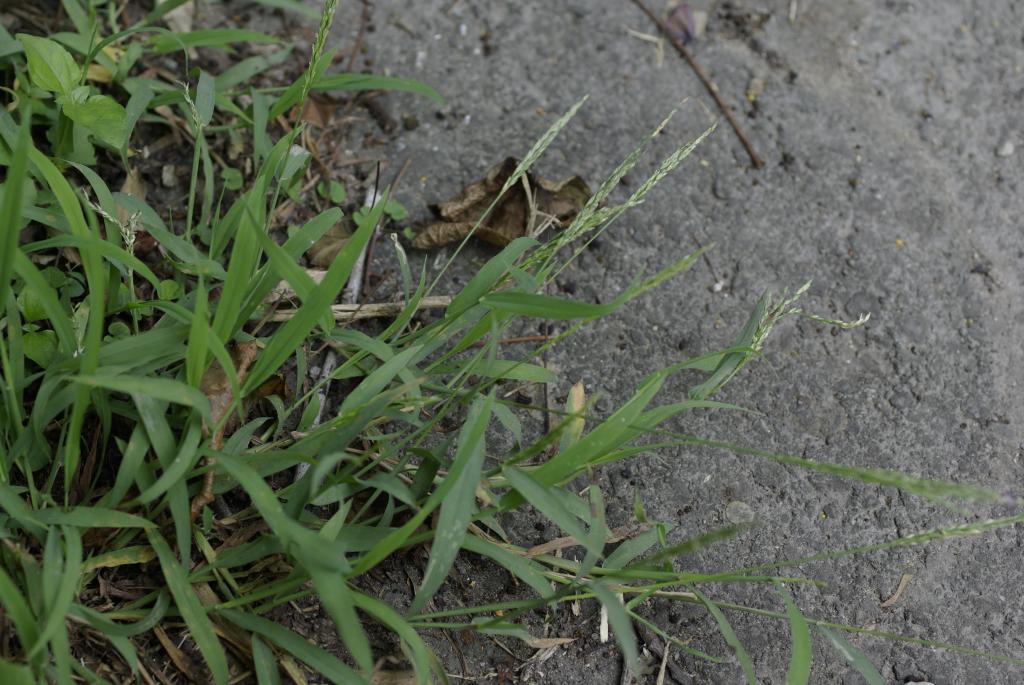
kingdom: Plantae
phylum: Tracheophyta
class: Liliopsida
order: Poales
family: Poaceae
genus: Digitaria
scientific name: Digitaria ciliaris
